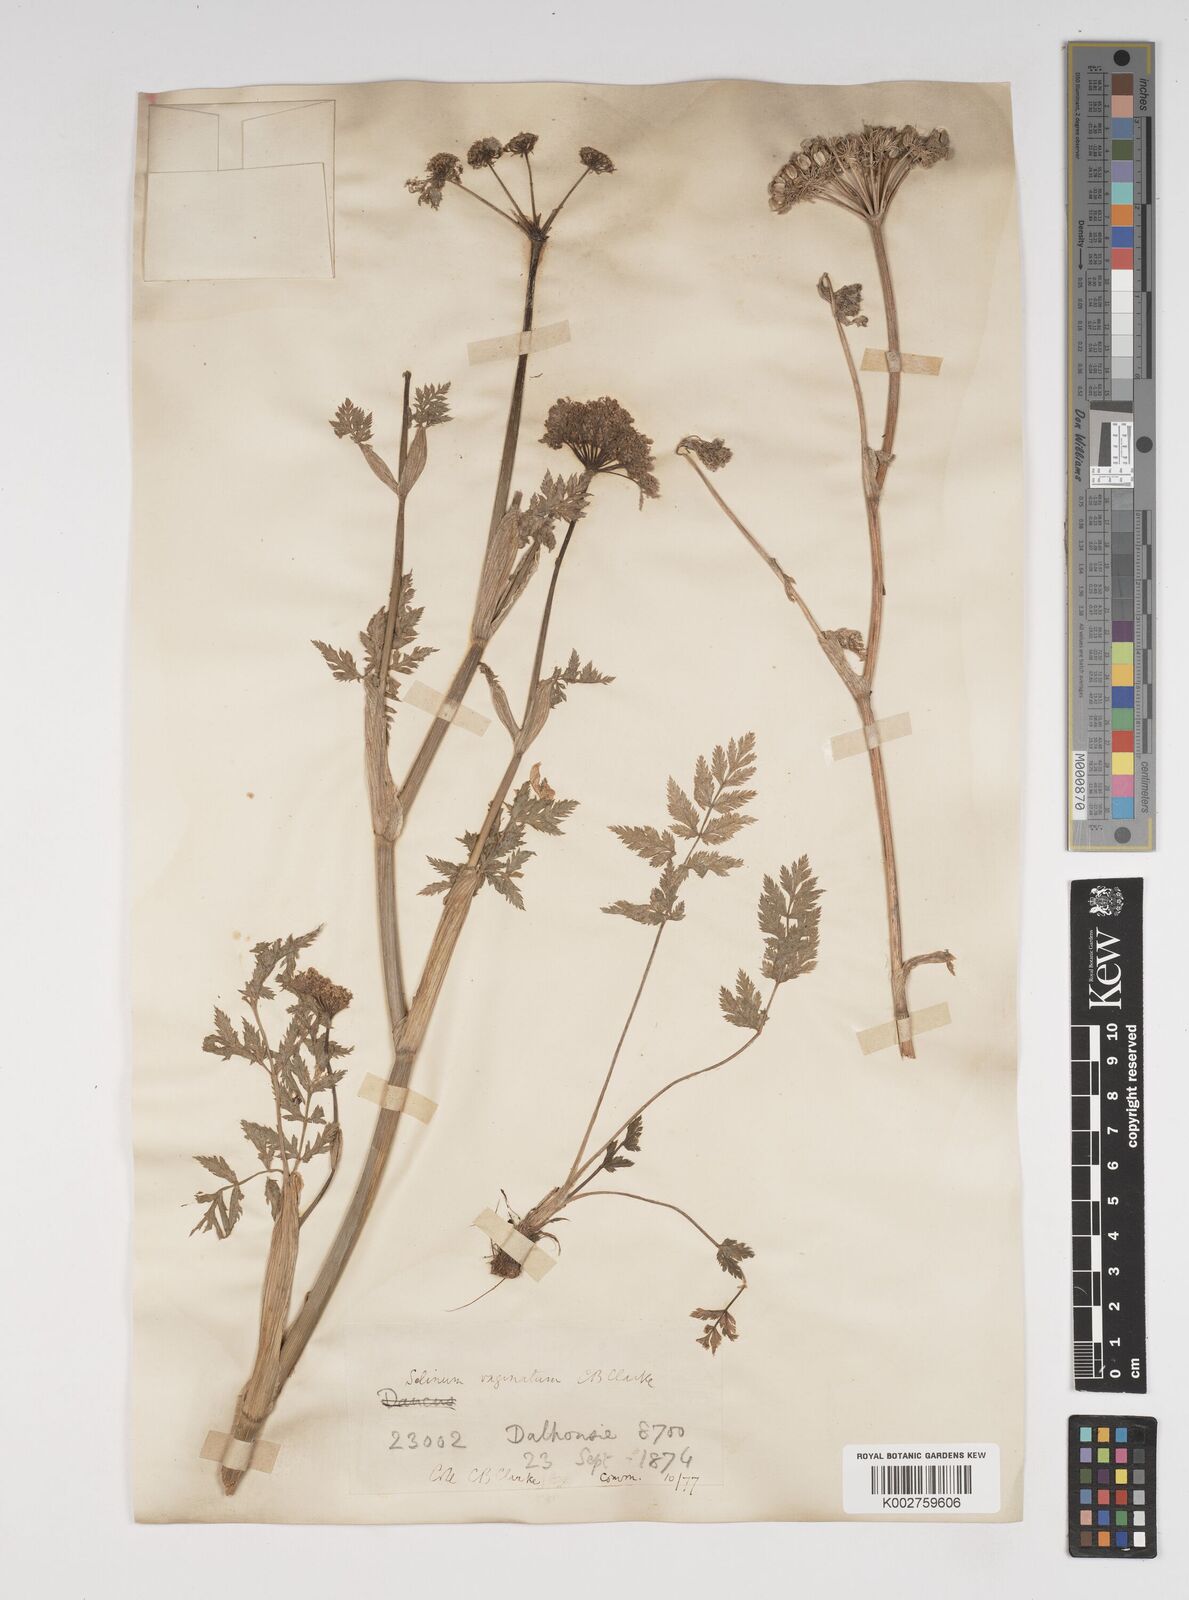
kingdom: Plantae
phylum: Tracheophyta
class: Magnoliopsida
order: Apiales
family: Apiaceae
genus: Selinum
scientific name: Selinum vaginatum
